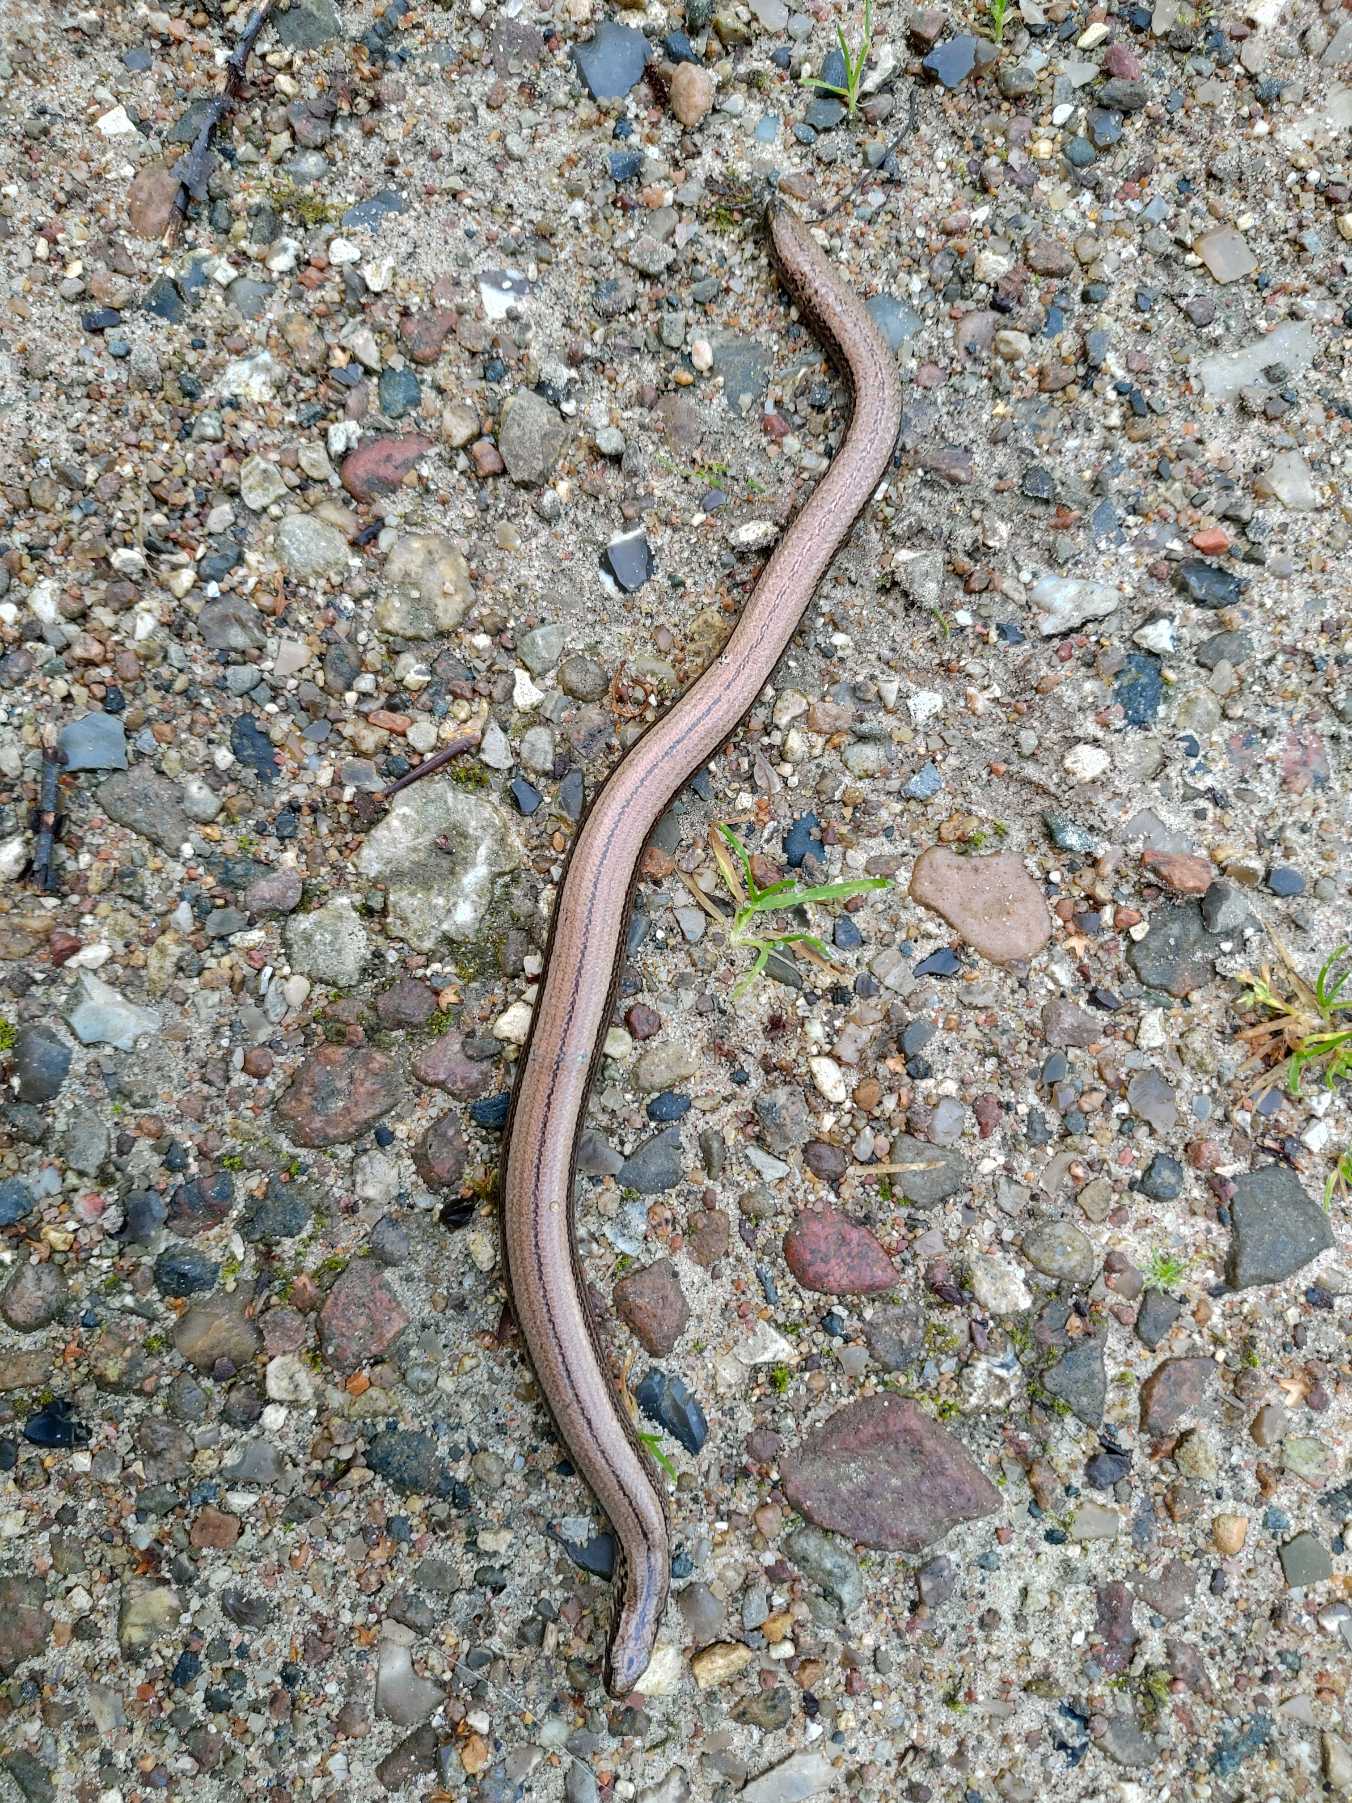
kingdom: Animalia
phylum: Chordata
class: Squamata
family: Anguidae
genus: Anguis
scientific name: Anguis fragilis
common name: Stålorm
